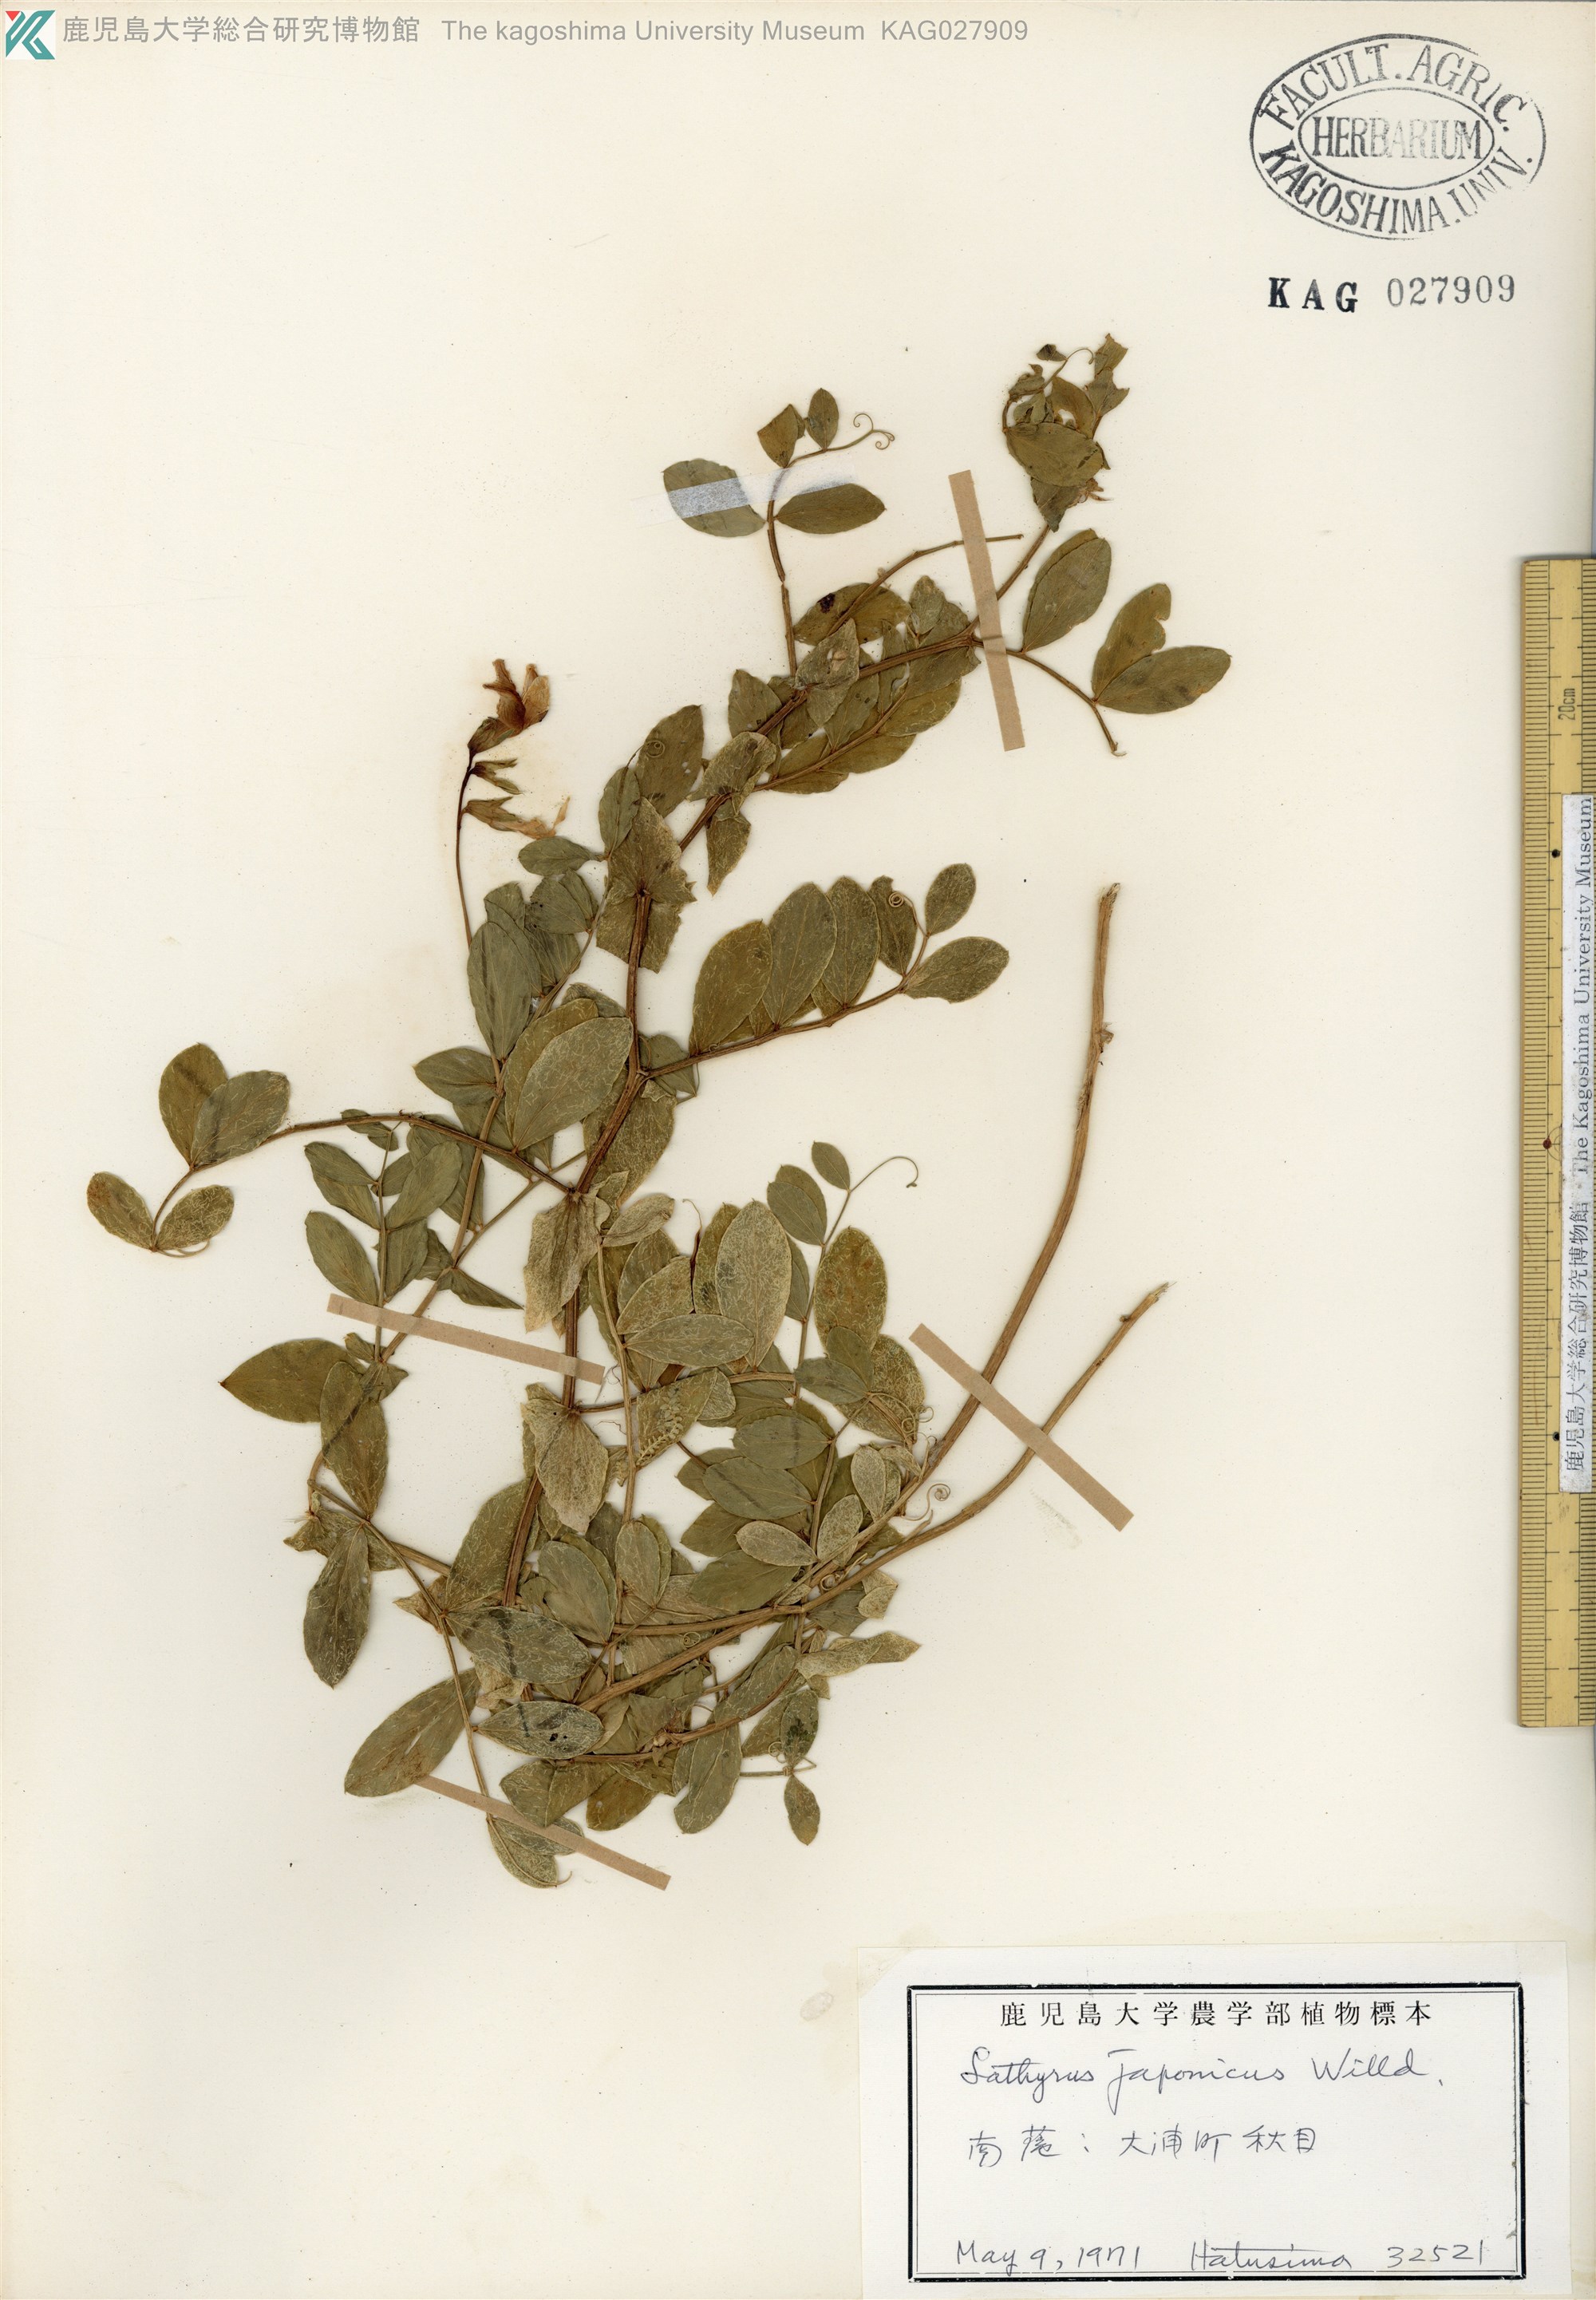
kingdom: Plantae
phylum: Tracheophyta
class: Magnoliopsida
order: Fabales
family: Fabaceae
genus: Lathyrus
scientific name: Lathyrus japonicus
